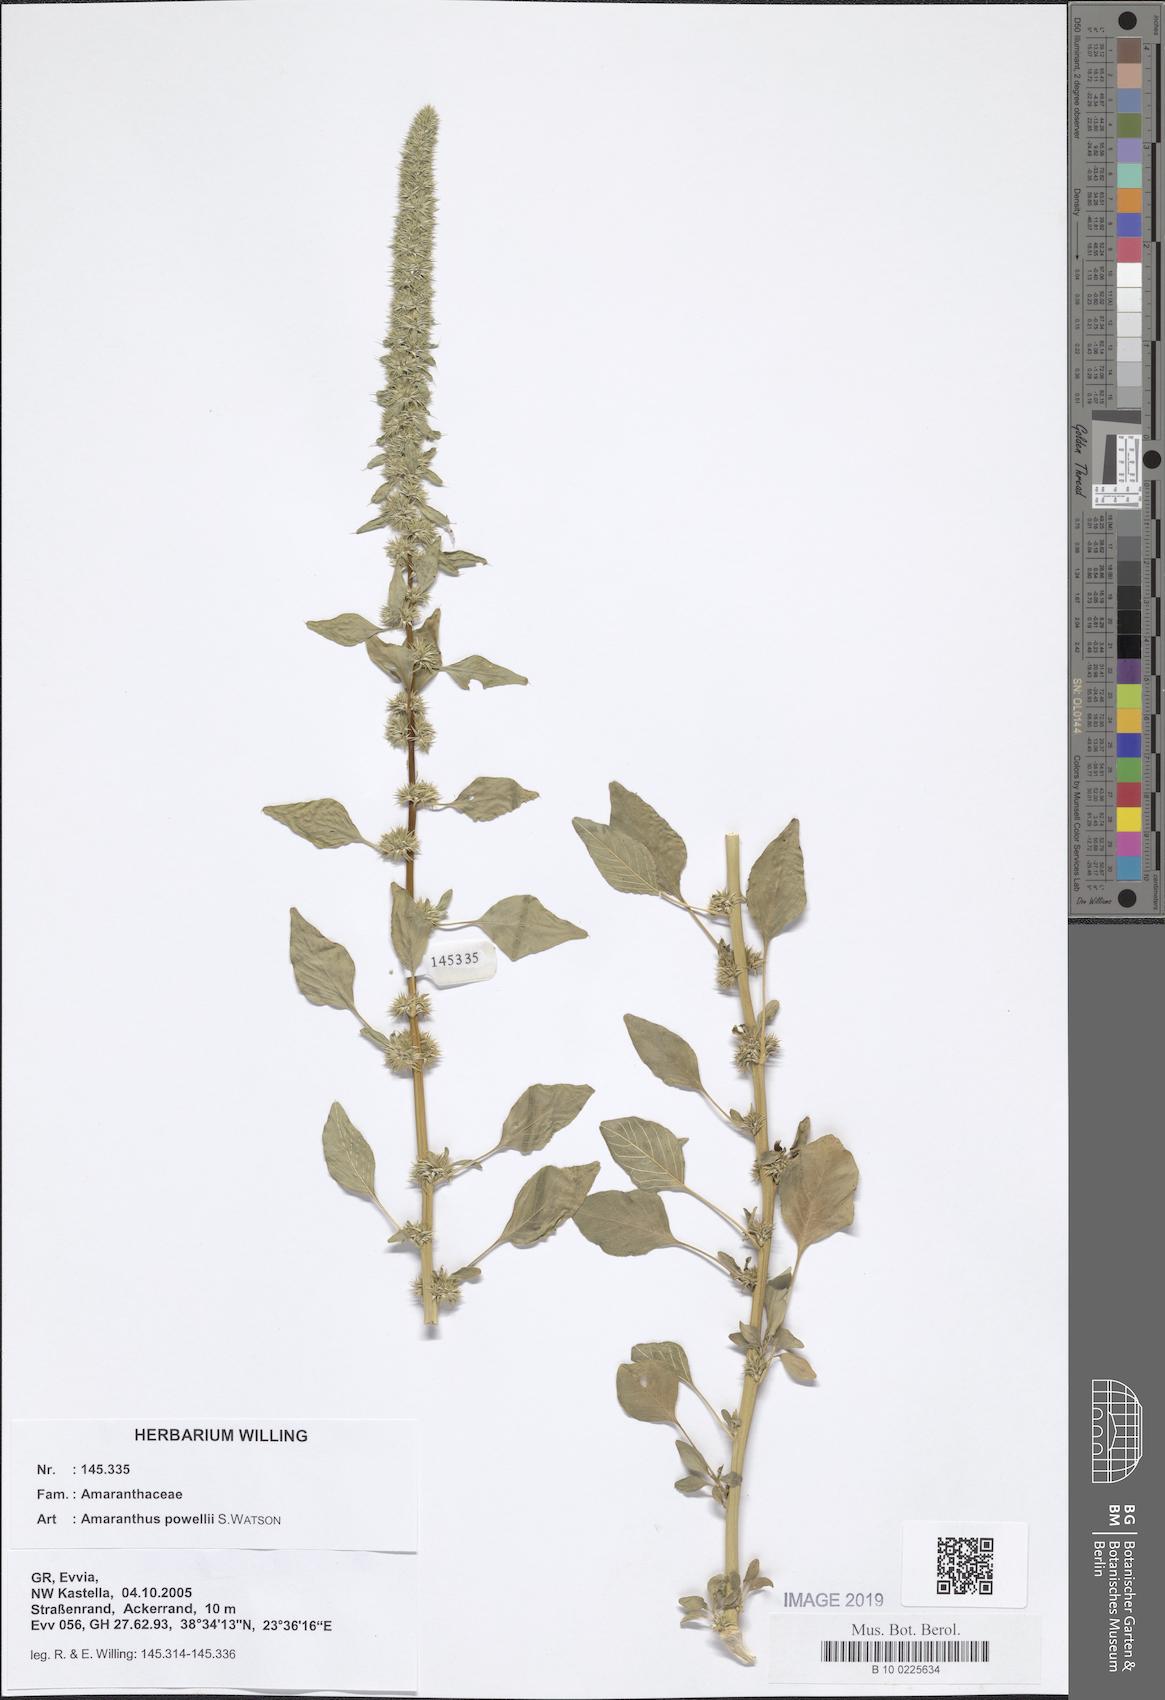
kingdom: Plantae
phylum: Tracheophyta
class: Magnoliopsida
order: Caryophyllales
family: Amaranthaceae
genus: Amaranthus
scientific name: Amaranthus powellii
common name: Powell's amaranth
